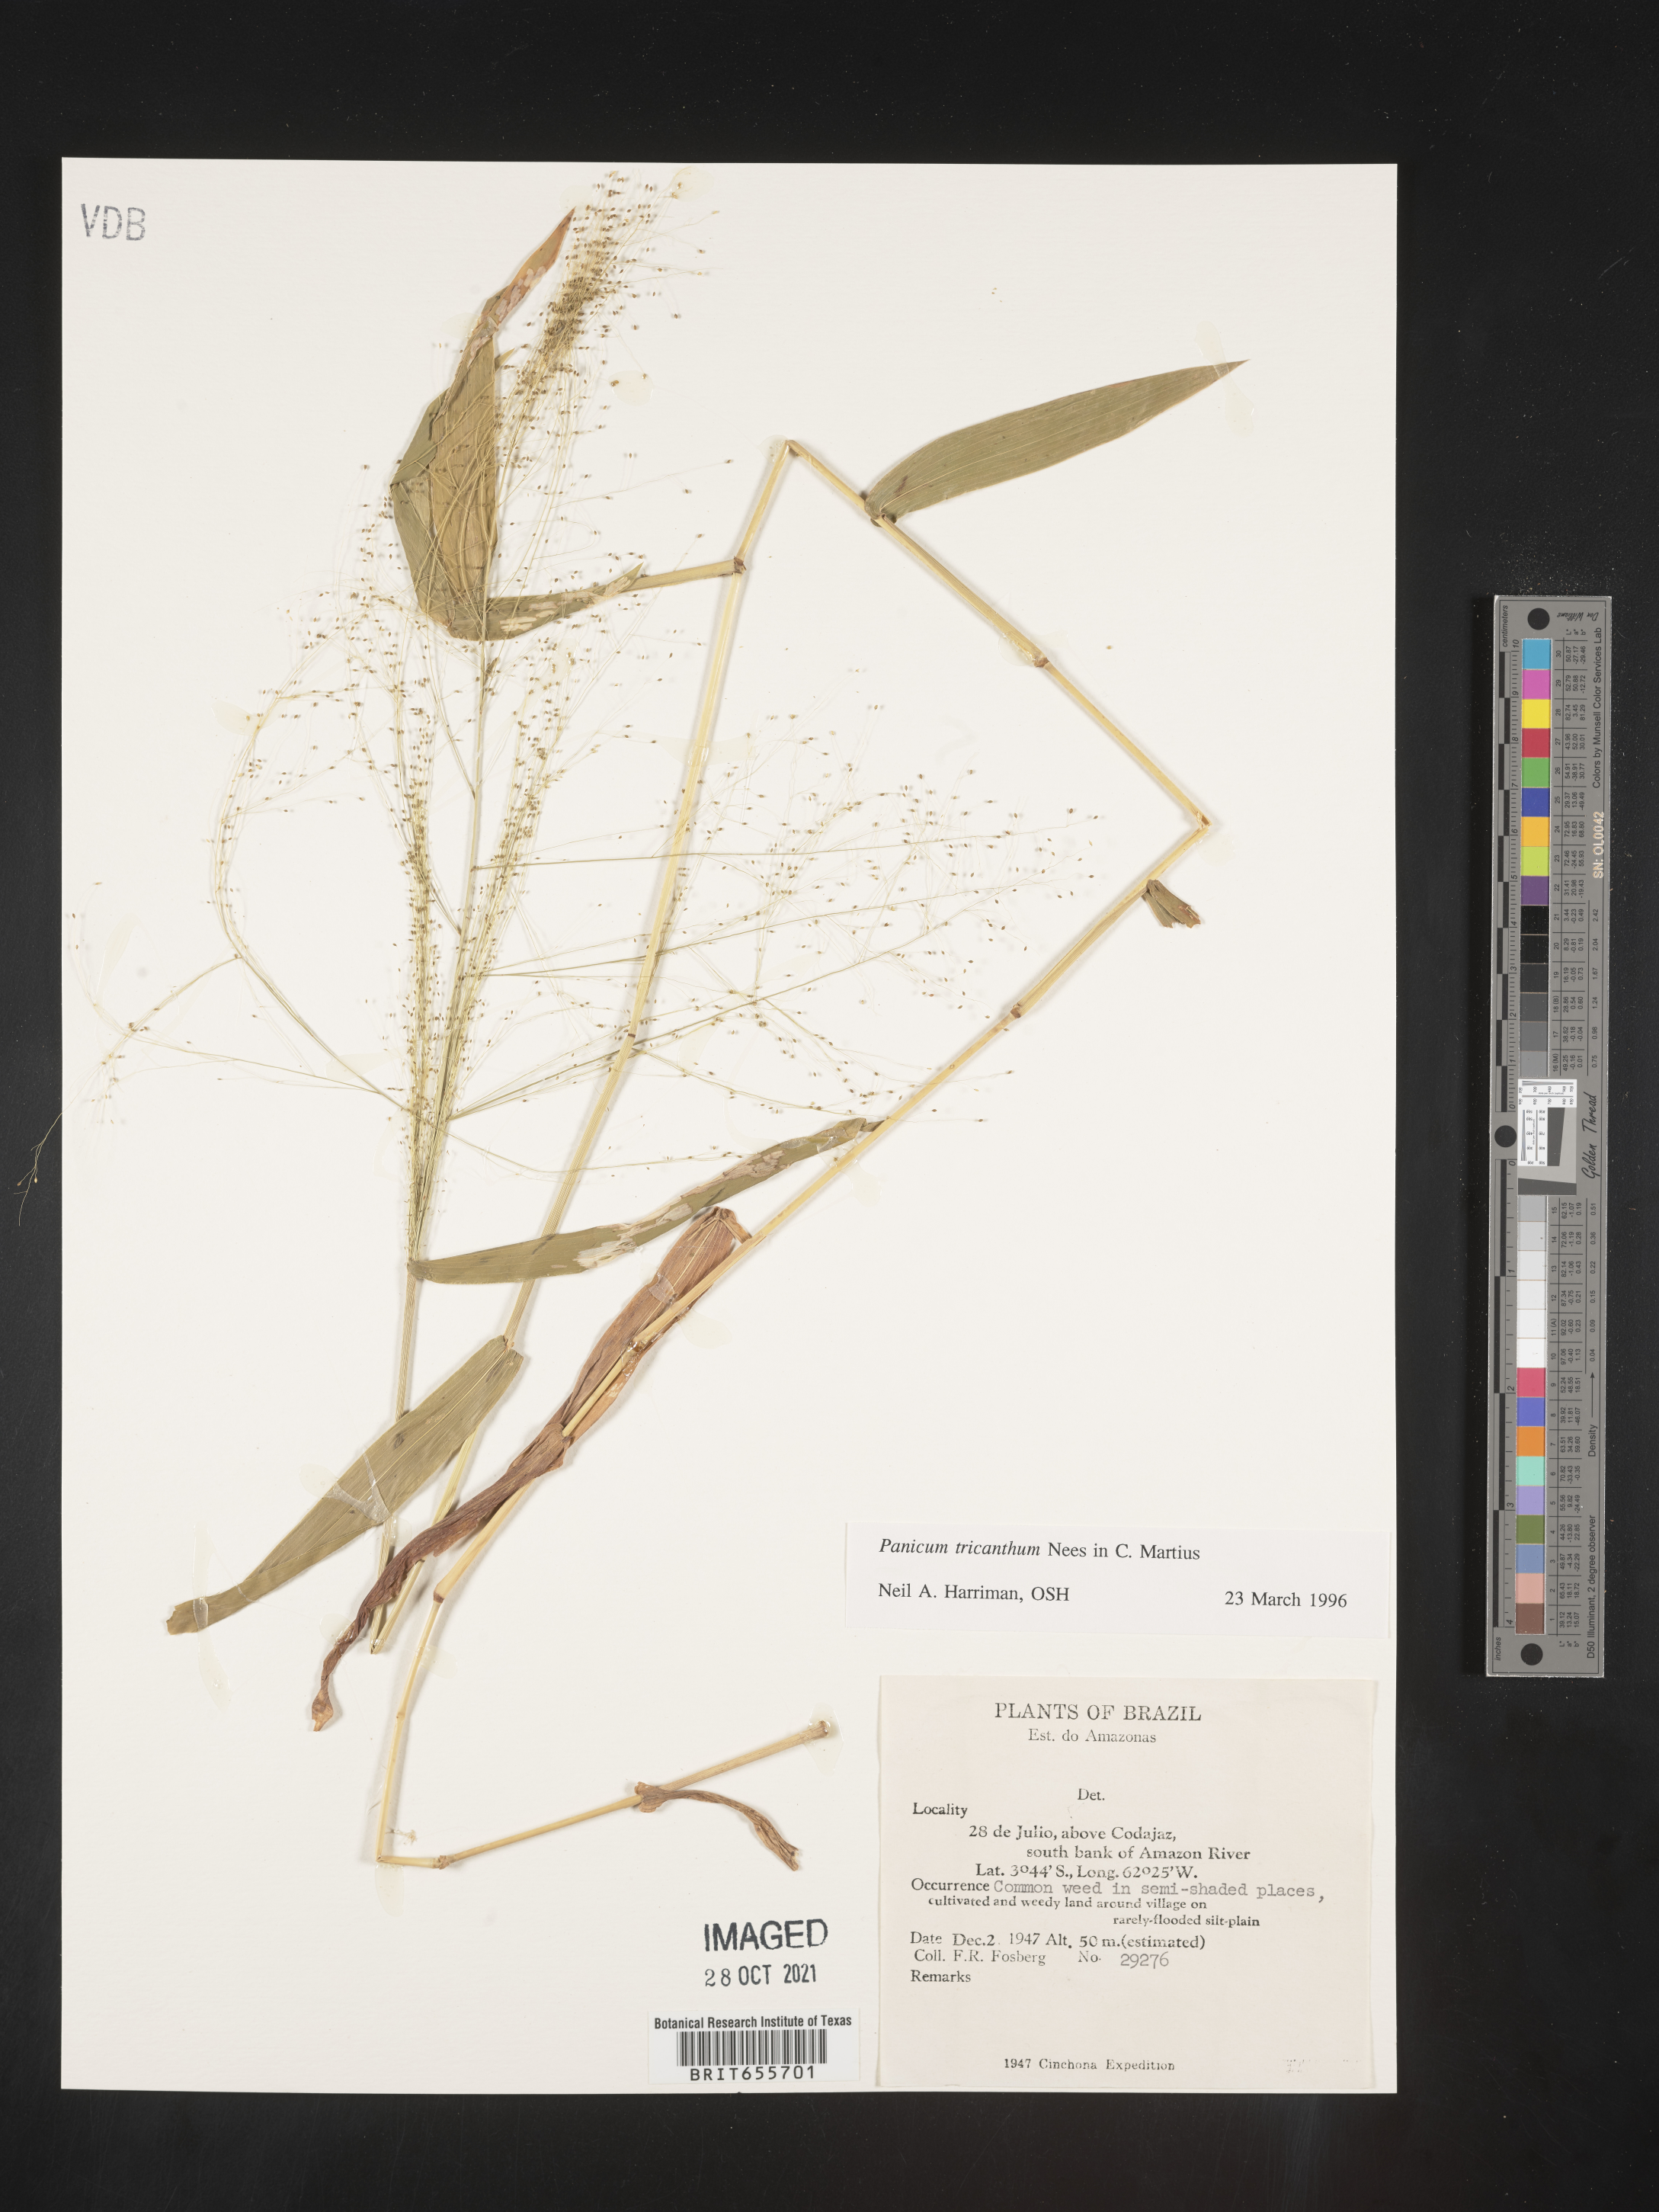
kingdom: Plantae
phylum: Tracheophyta
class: Liliopsida
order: Poales
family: Poaceae
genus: Panicum
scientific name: Panicum
